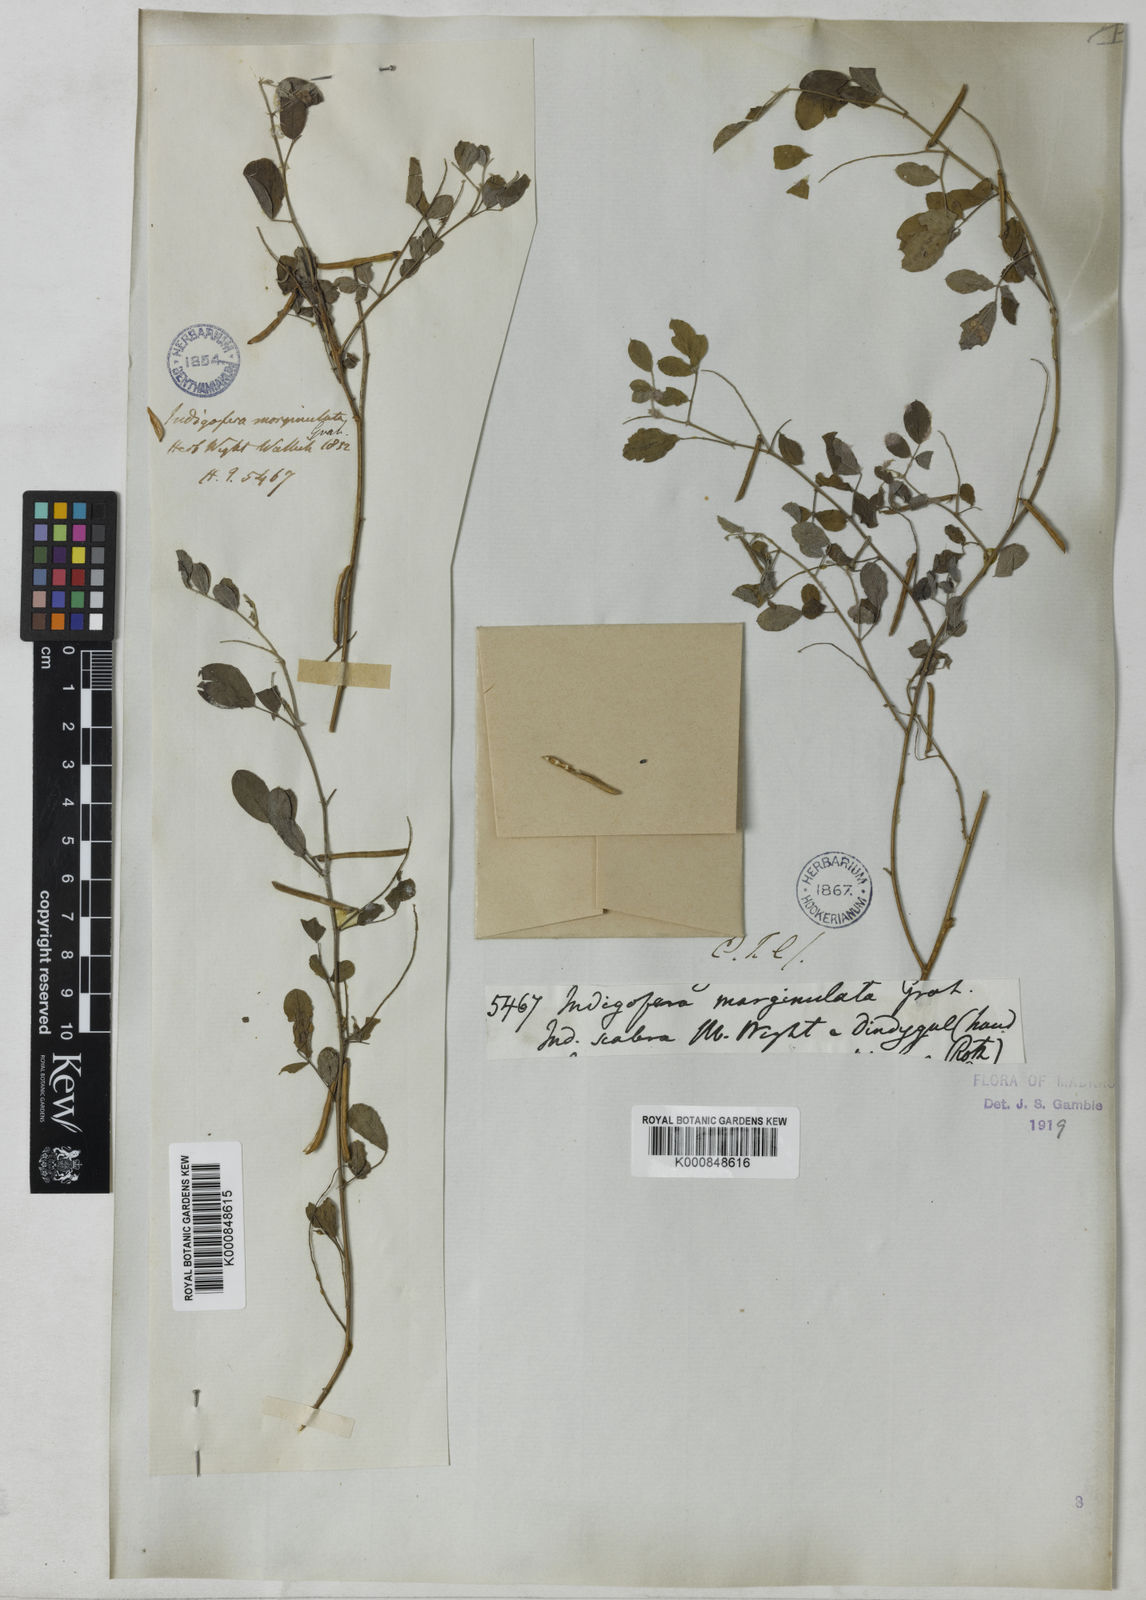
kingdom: Plantae
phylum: Tracheophyta
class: Magnoliopsida
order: Fabales
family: Fabaceae
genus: Indigofera
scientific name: Indigofera
